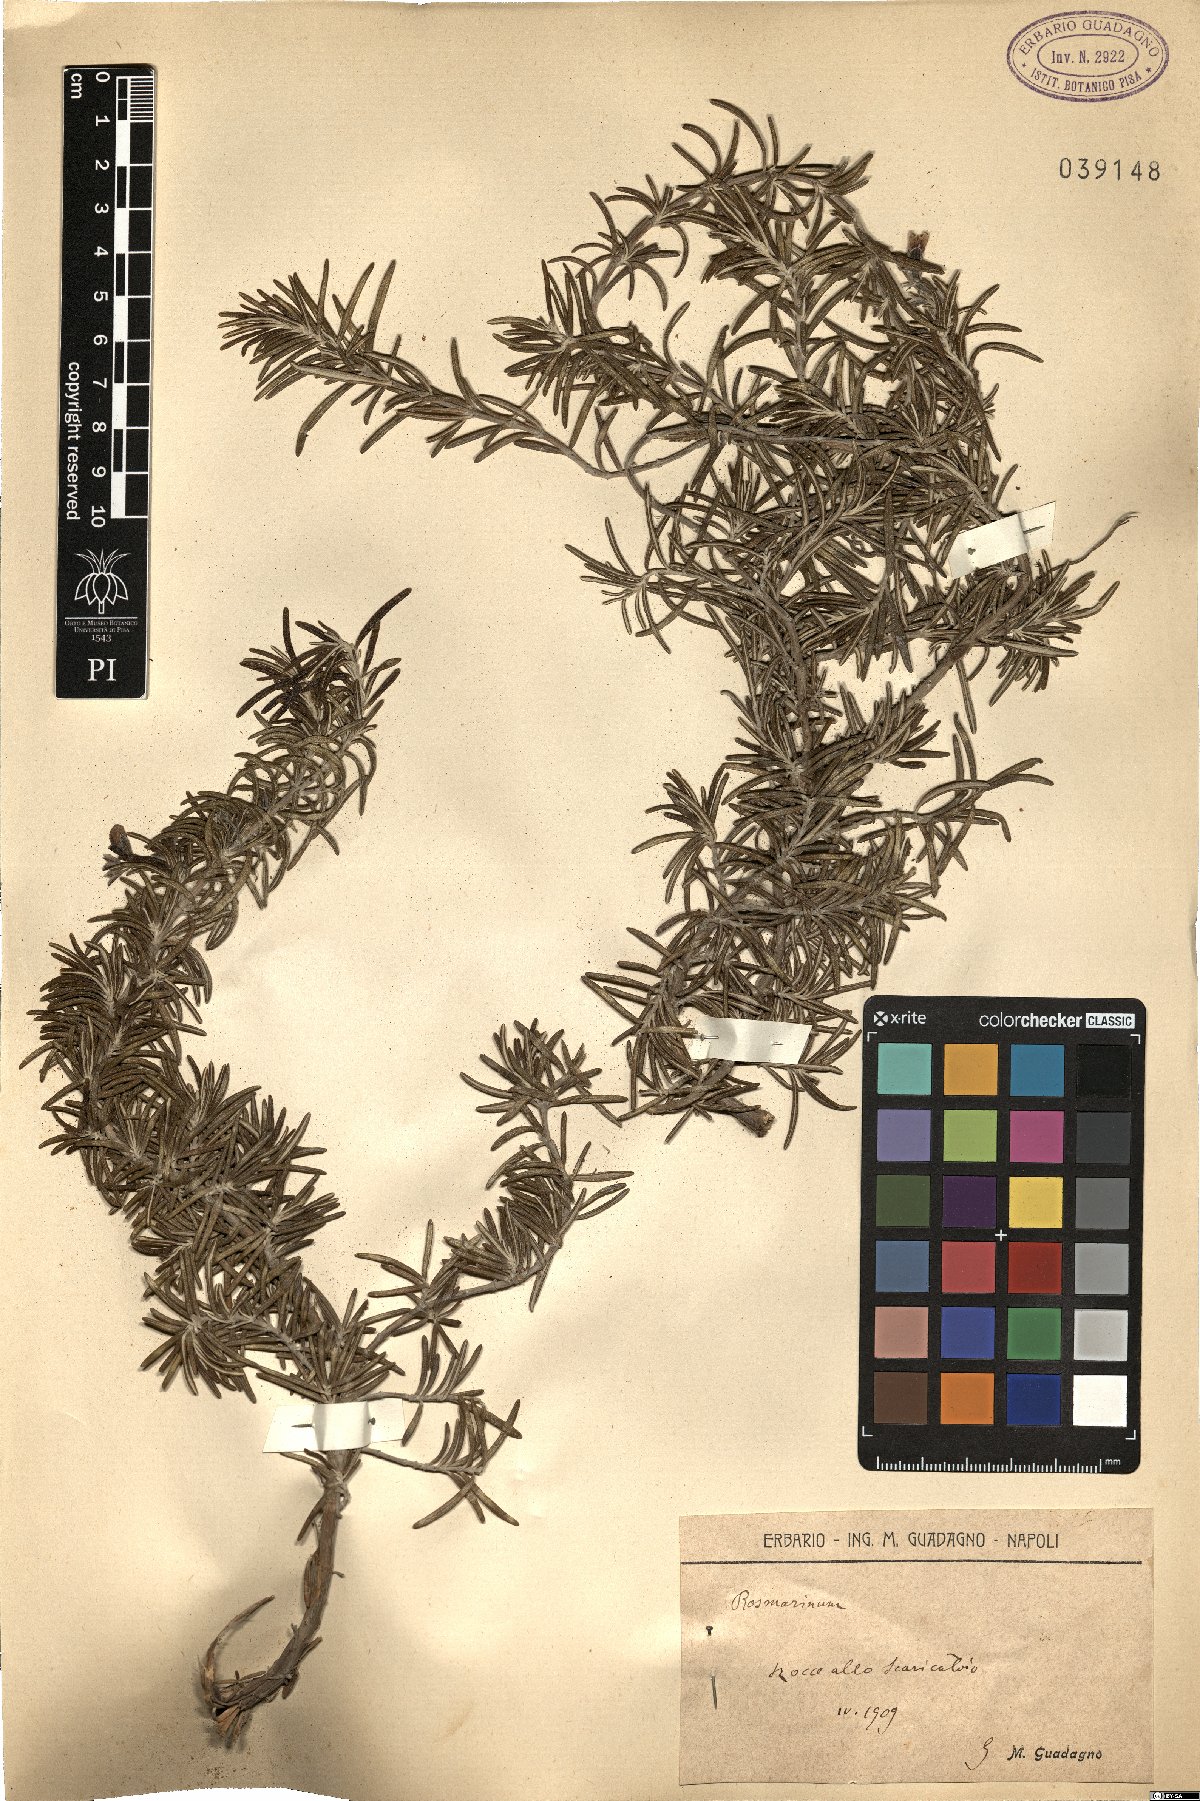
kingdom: Plantae
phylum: Tracheophyta
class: Magnoliopsida
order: Lamiales
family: Lamiaceae
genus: Salvia
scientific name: Salvia
